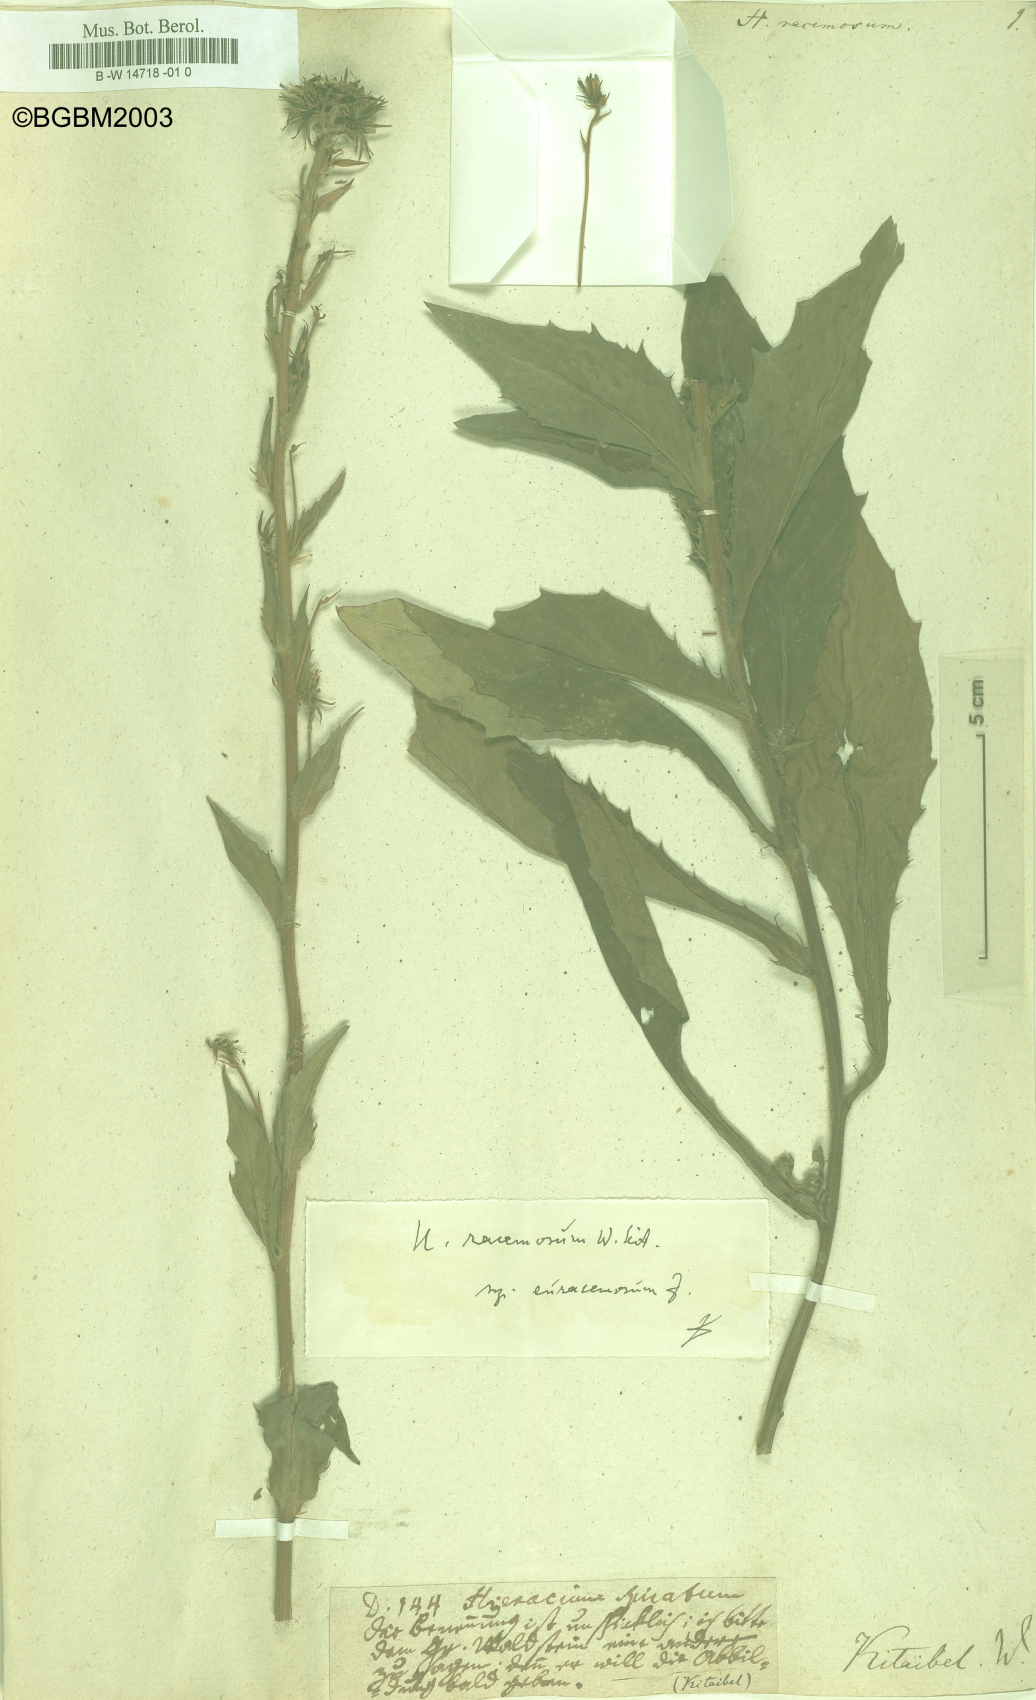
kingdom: Plantae
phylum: Tracheophyta
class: Magnoliopsida
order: Asterales
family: Asteraceae
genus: Hieracium
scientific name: Hieracium racemosum
